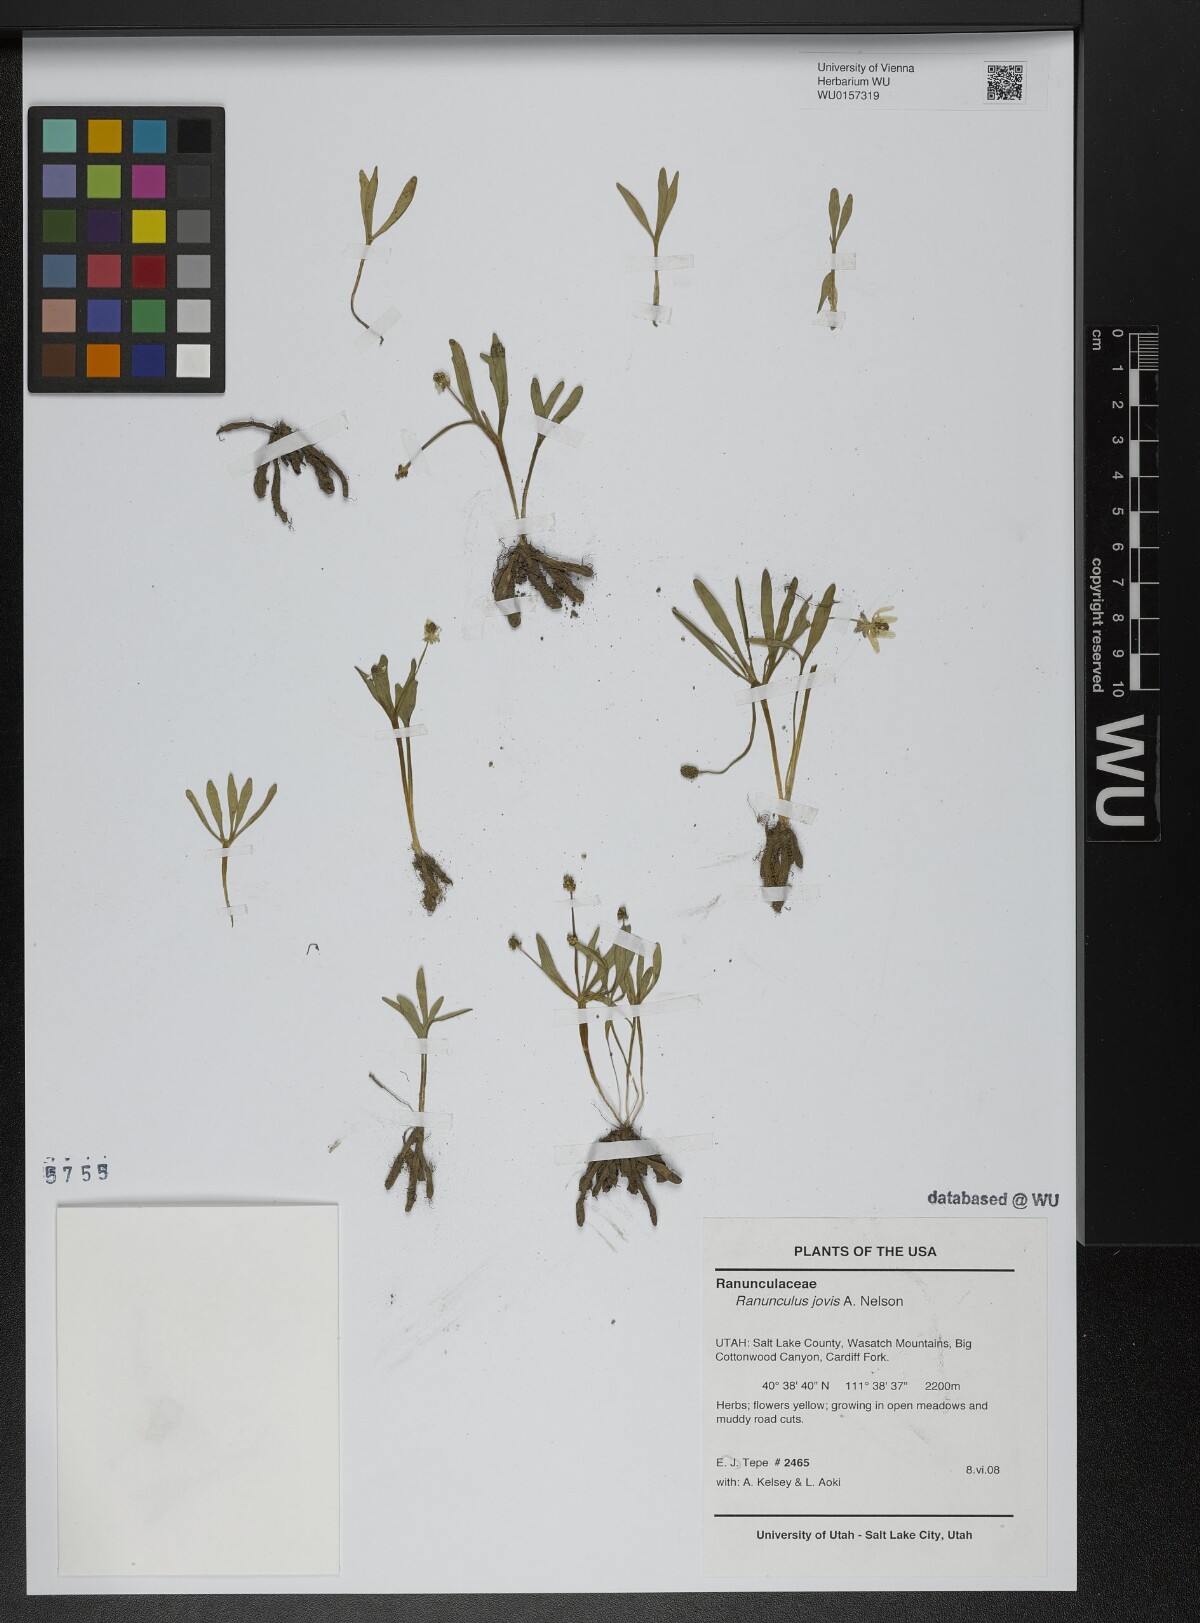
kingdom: Plantae
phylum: Tracheophyta
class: Magnoliopsida
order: Ranunculales
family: Ranunculaceae
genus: Ranunculus
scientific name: Ranunculus digitatus
